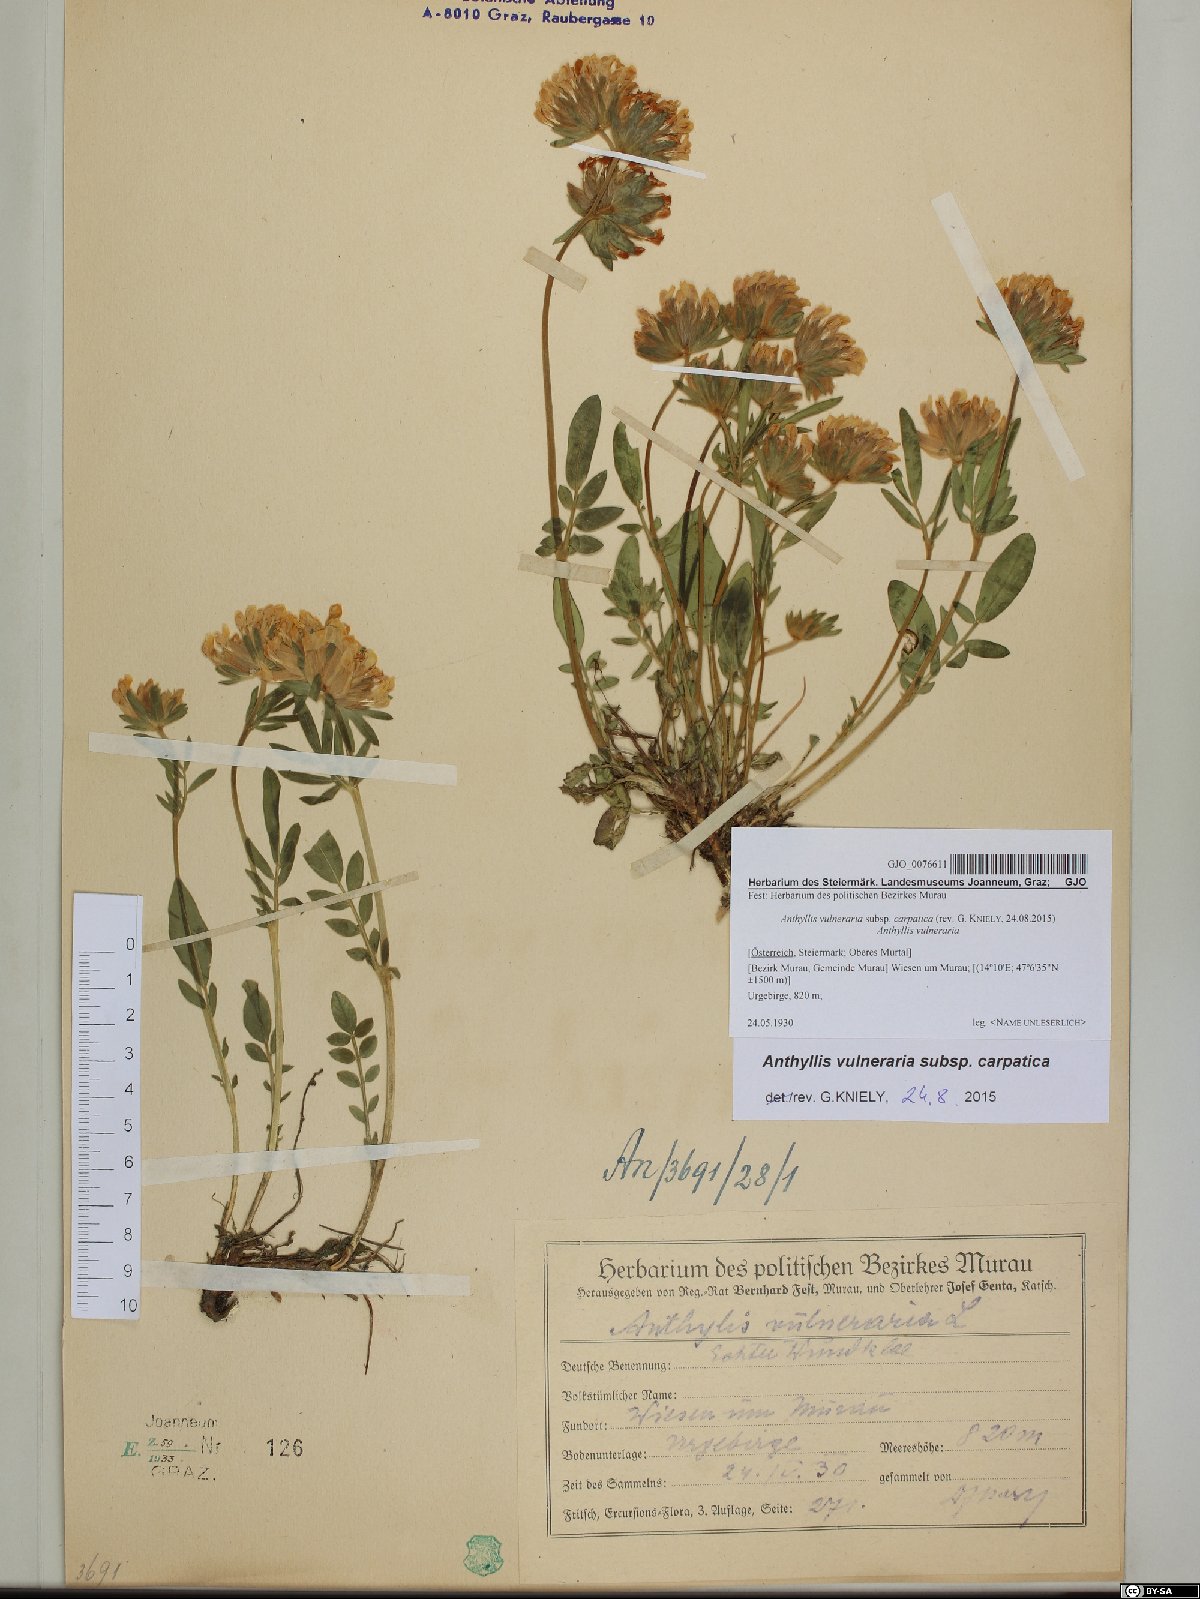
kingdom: Plantae
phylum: Tracheophyta
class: Magnoliopsida
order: Fabales
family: Fabaceae
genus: Anthyllis
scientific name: Anthyllis vulneraria
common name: Kidney vetch
